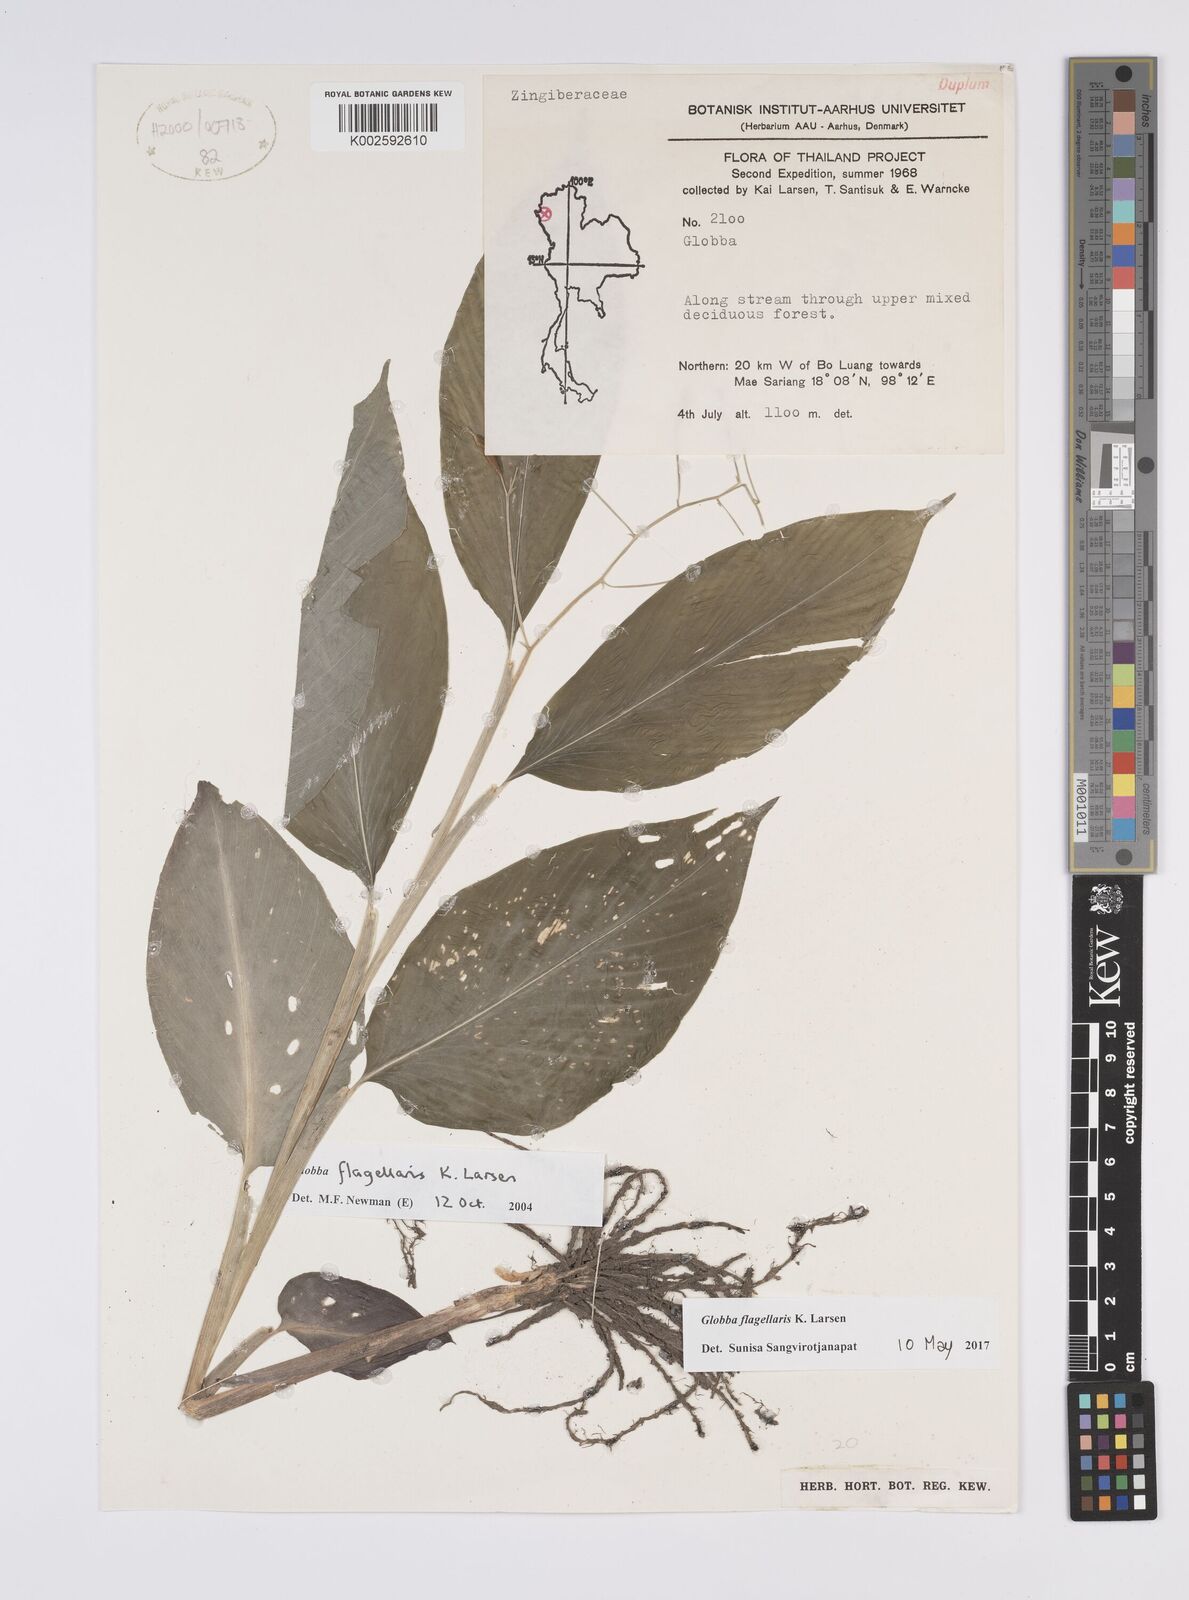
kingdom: Plantae
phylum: Tracheophyta
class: Liliopsida
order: Zingiberales
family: Zingiberaceae
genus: Globba
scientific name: Globba flagellaris
